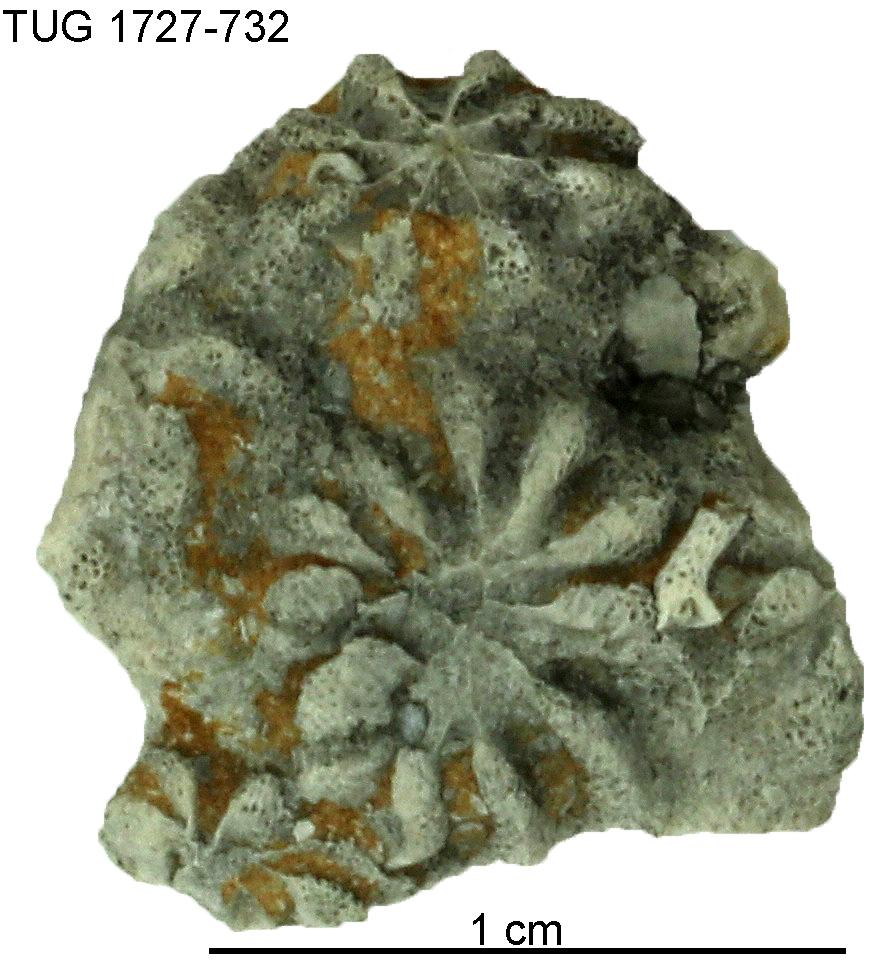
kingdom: Animalia
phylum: Bryozoa
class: Stenolaemata
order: Cystoporida
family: Constellariidae
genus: Revalopora
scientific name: Revalopora revalensis
